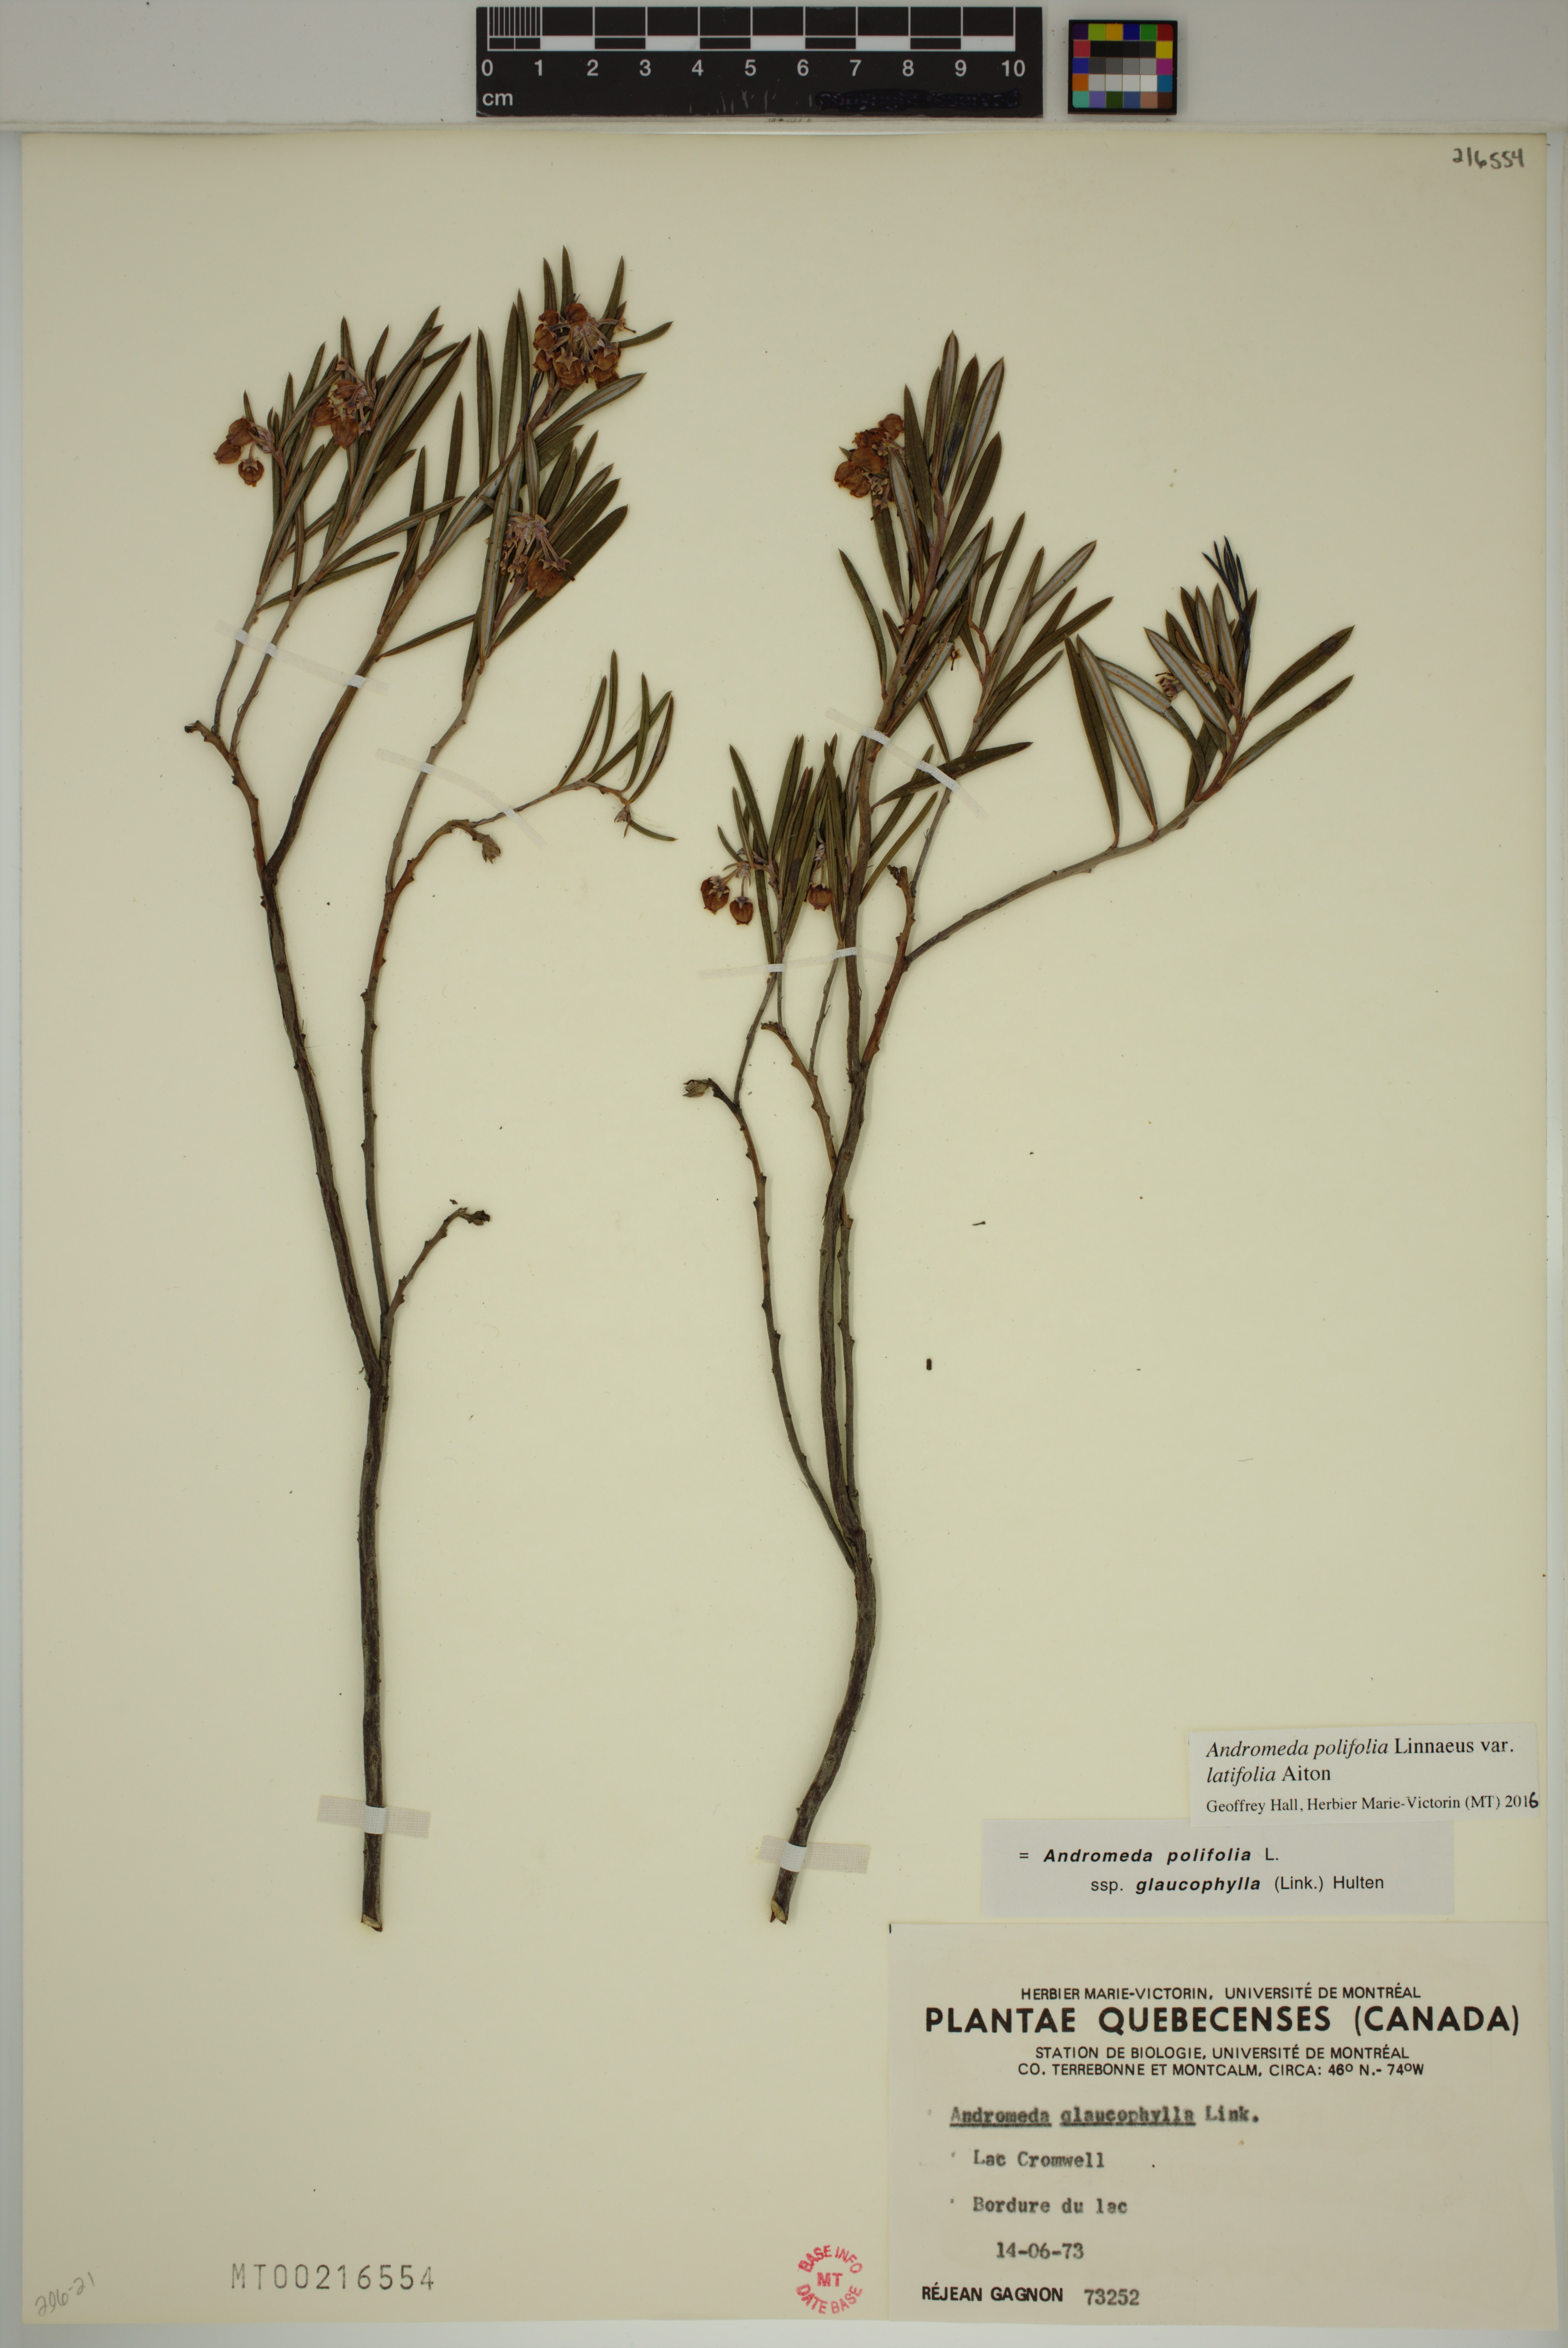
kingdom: Plantae
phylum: Tracheophyta
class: Magnoliopsida
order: Ericales
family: Ericaceae
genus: Andromeda
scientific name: Andromeda polifolia
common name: Bog-rosemary
